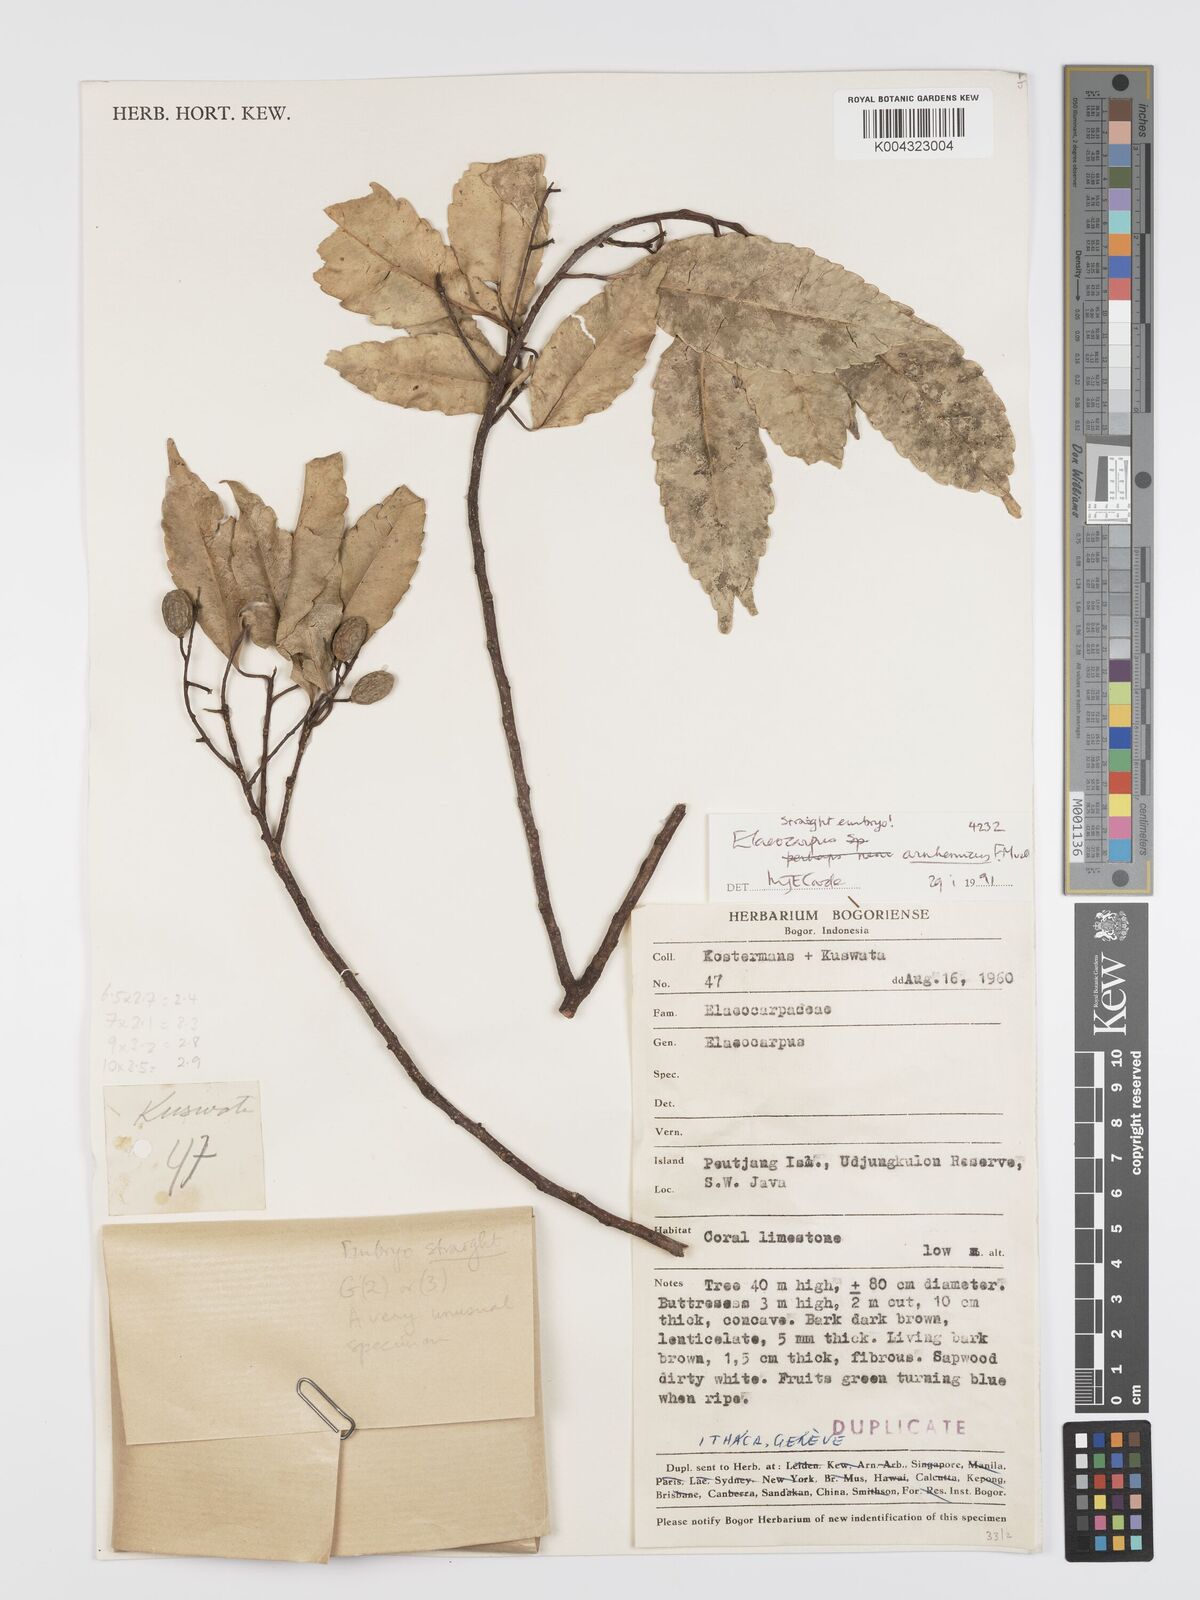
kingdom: Plantae
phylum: Tracheophyta
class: Magnoliopsida
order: Oxalidales
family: Elaeocarpaceae
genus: Elaeocarpus
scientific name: Elaeocarpus arnhemicus
